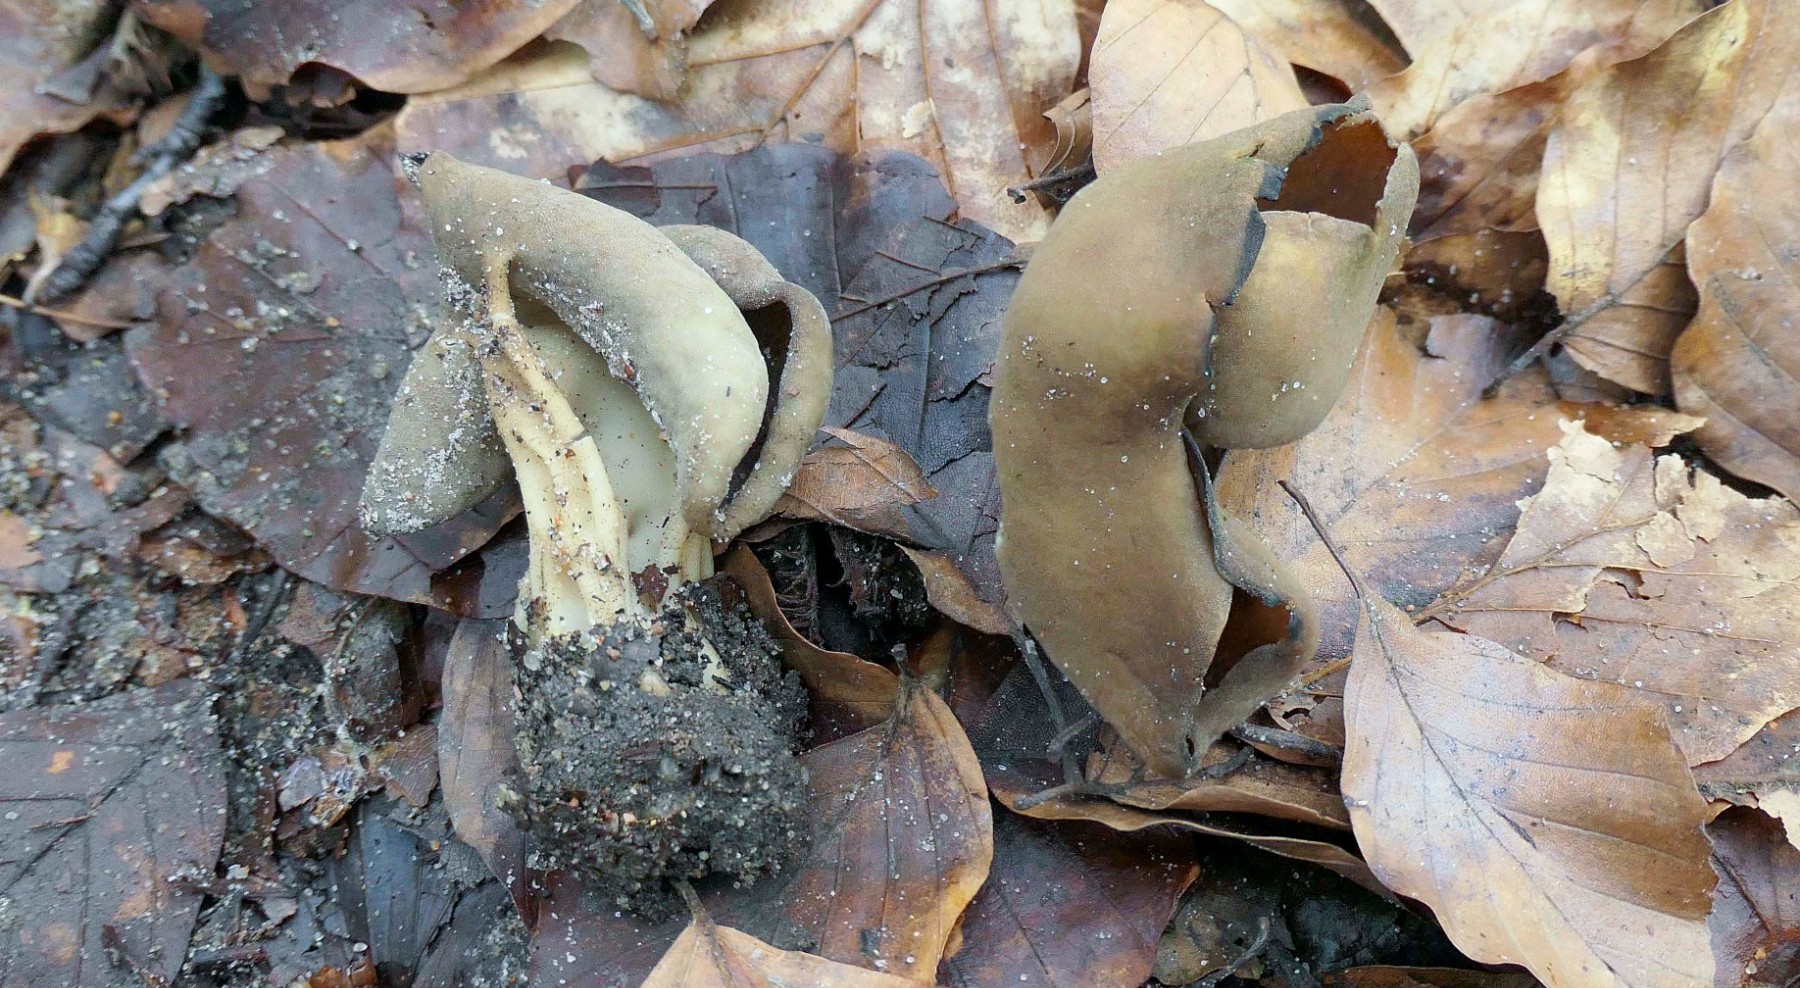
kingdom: Fungi
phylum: Ascomycota
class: Pezizomycetes
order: Pezizales
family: Helvellaceae
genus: Helvella
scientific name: Helvella solitaria
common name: Quélets foldhat
